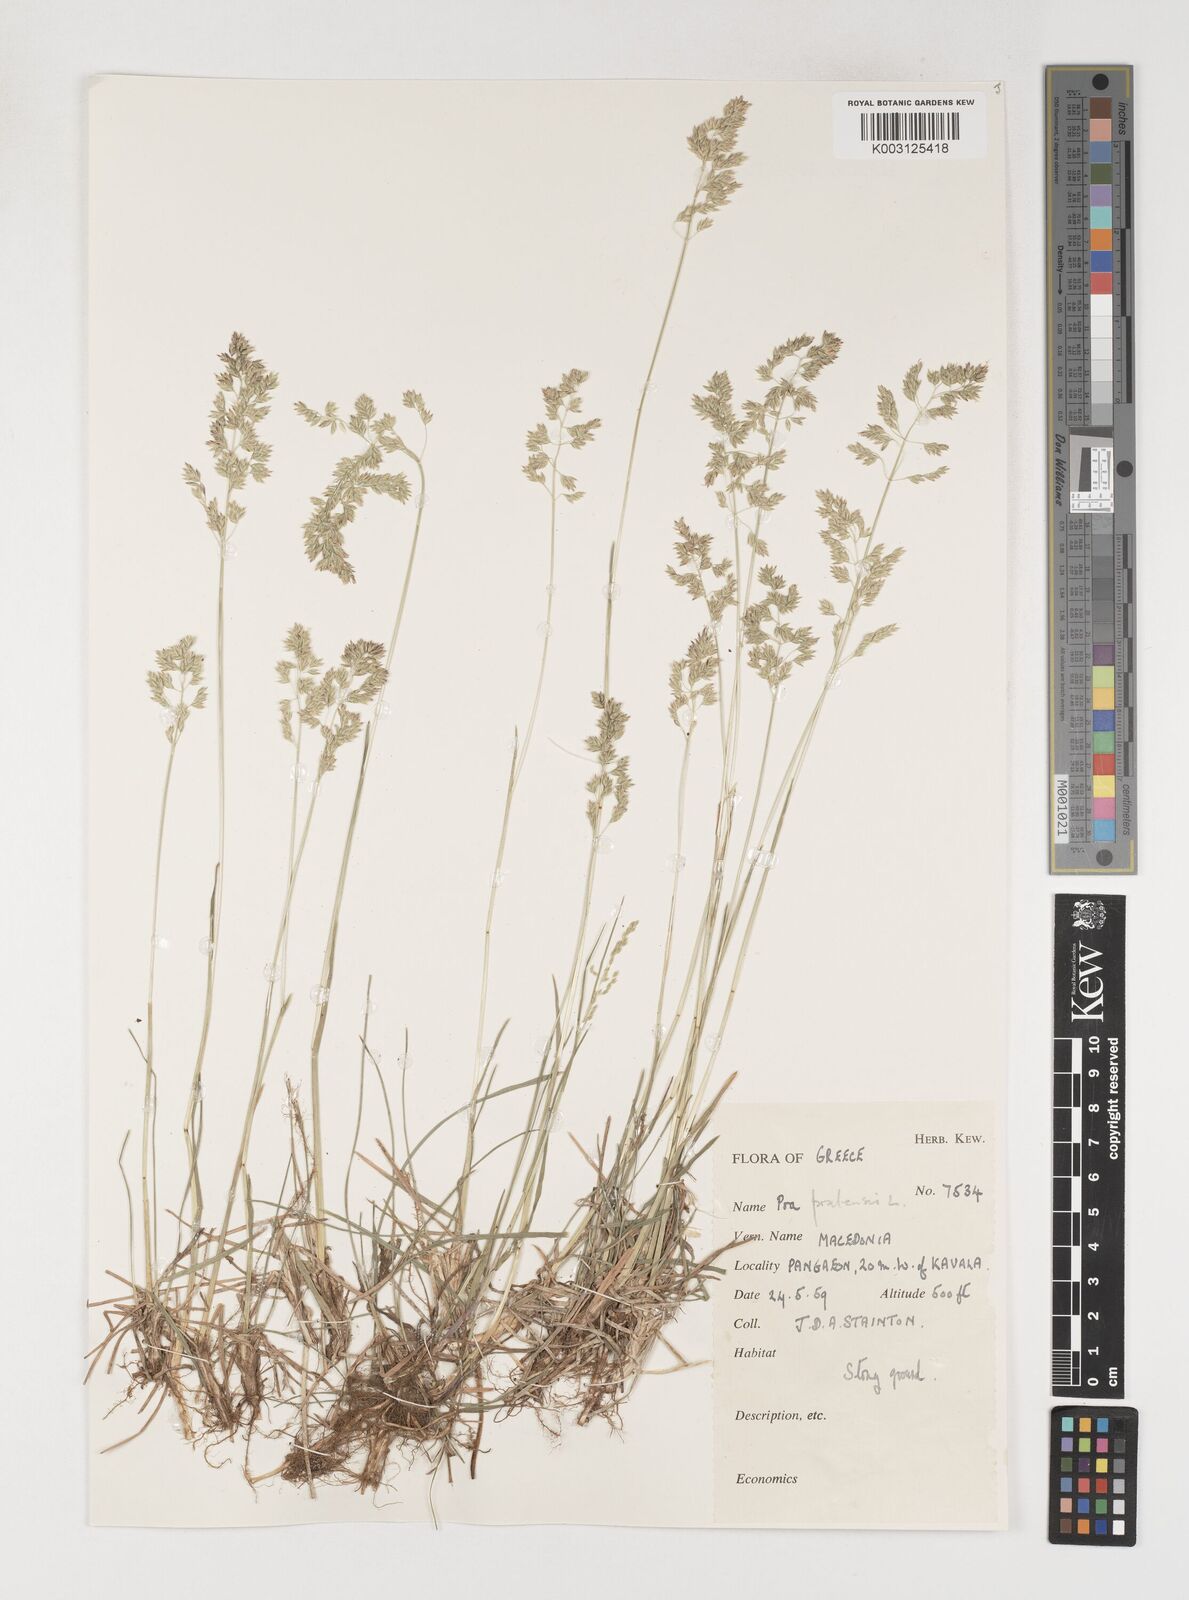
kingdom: Plantae
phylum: Tracheophyta
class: Liliopsida
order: Poales
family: Poaceae
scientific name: Poaceae
